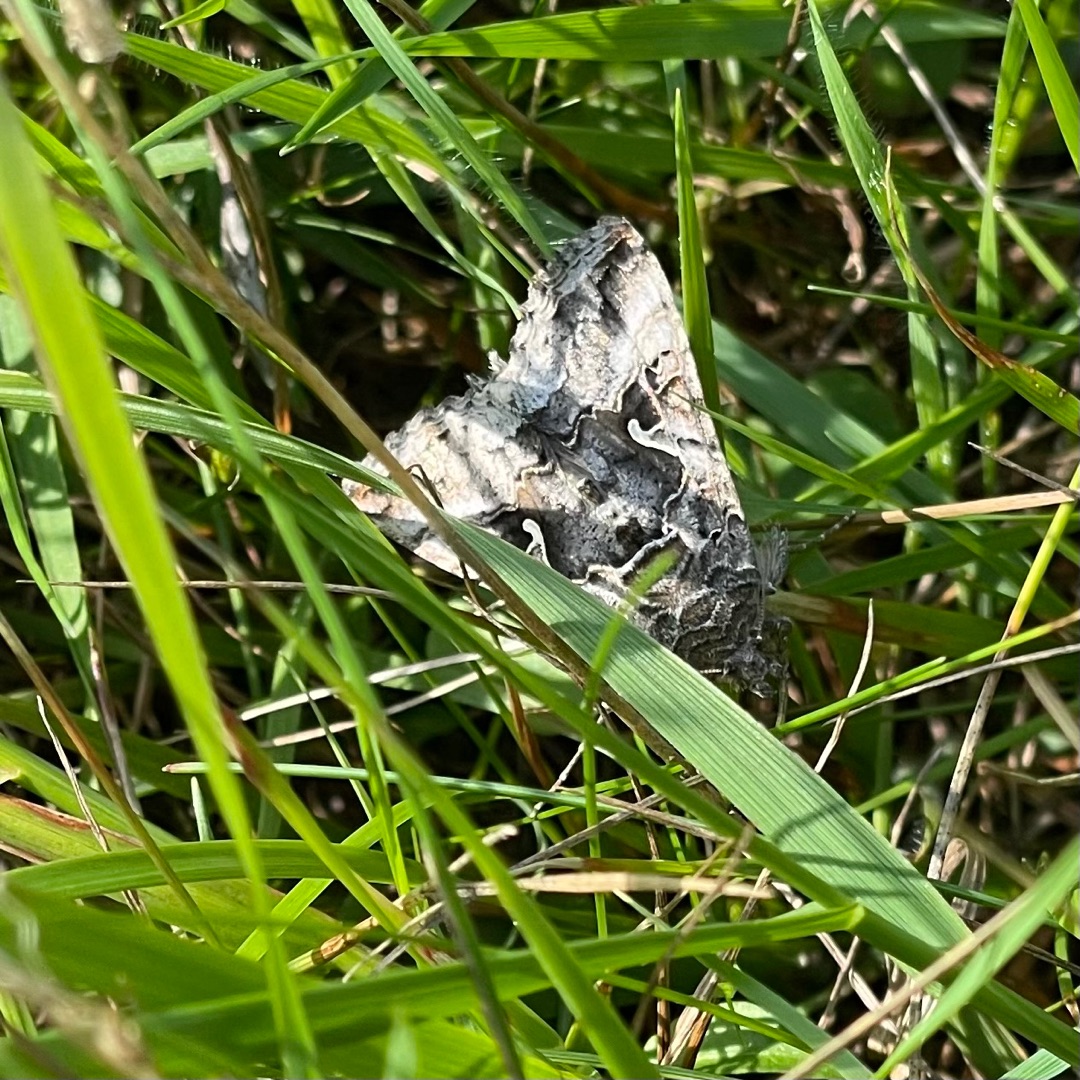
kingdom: Animalia
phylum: Arthropoda
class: Insecta
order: Lepidoptera
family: Noctuidae
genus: Autographa
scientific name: Autographa gamma
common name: Gammaugle
